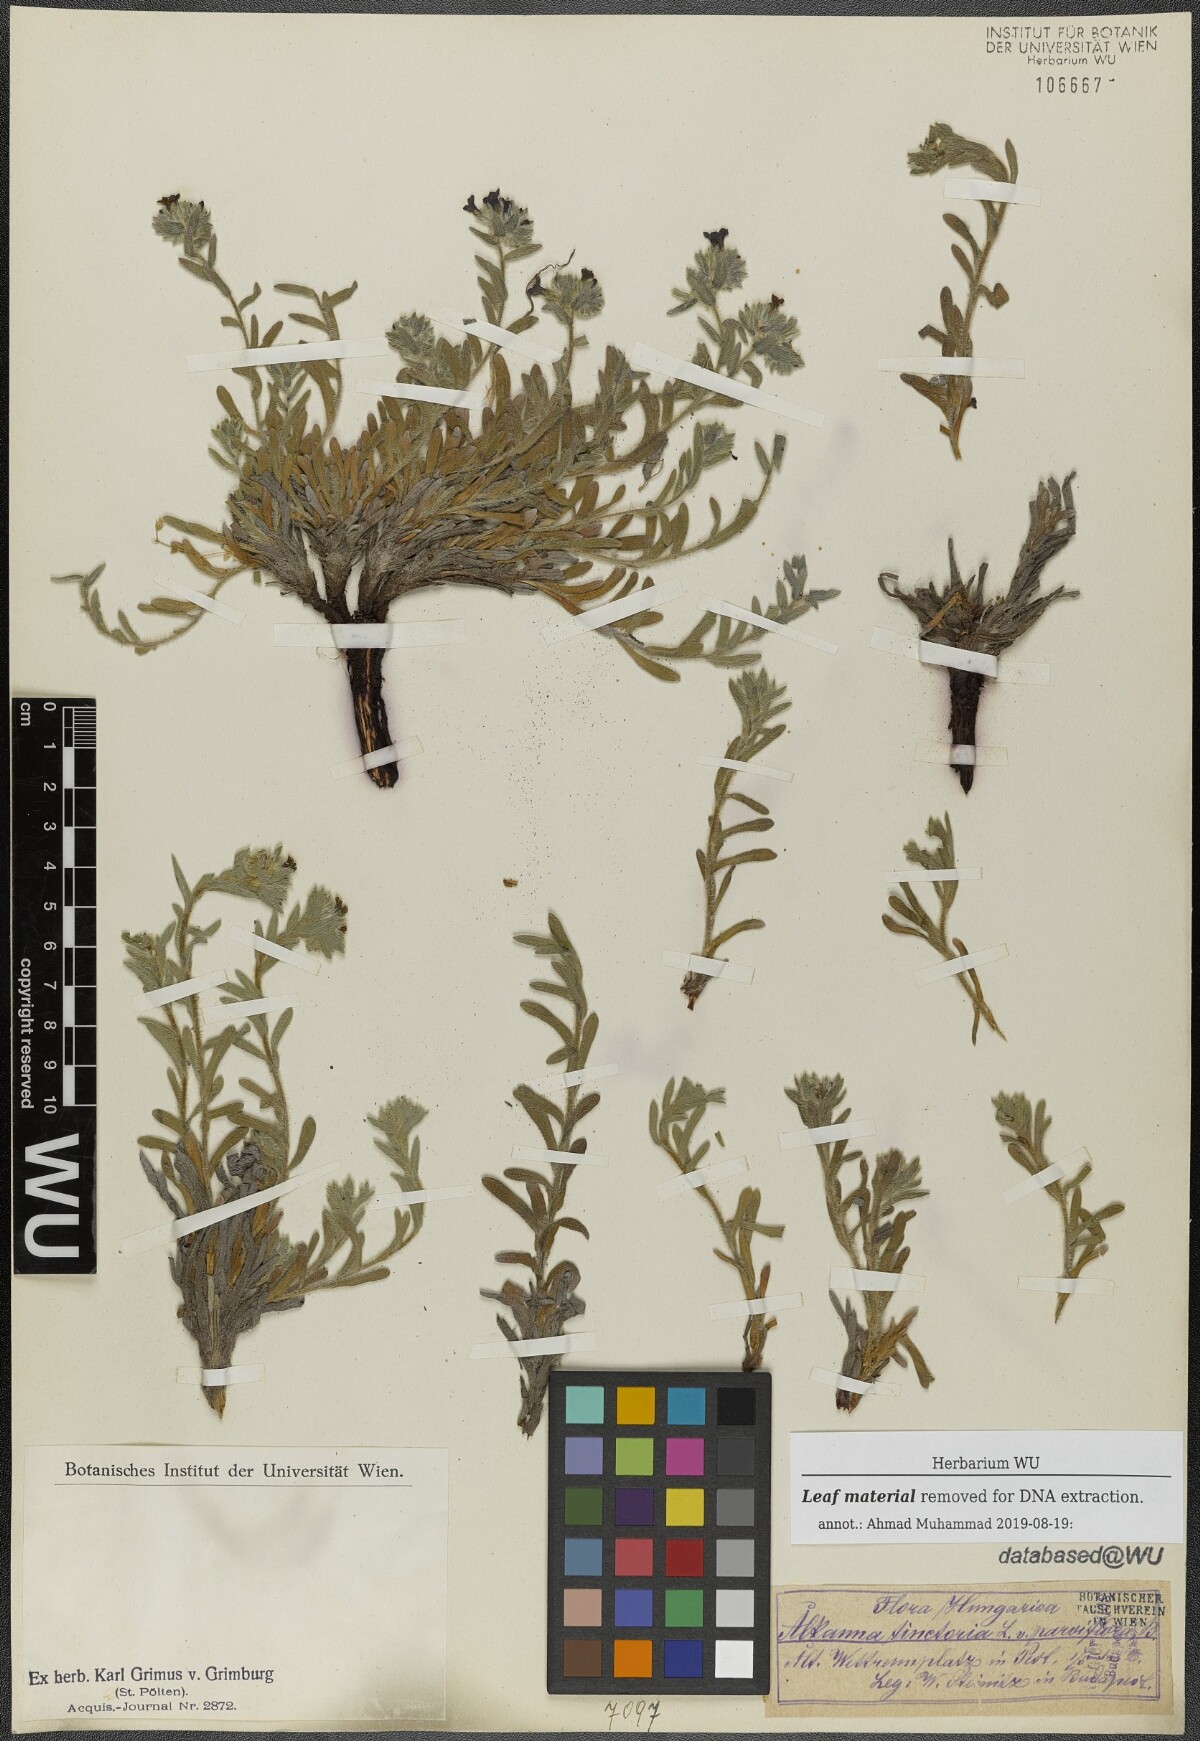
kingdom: Plantae
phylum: Tracheophyta
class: Magnoliopsida
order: Boraginales
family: Boraginaceae
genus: Alkanna
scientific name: Alkanna tinctoria
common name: Dyer's-alkanet
